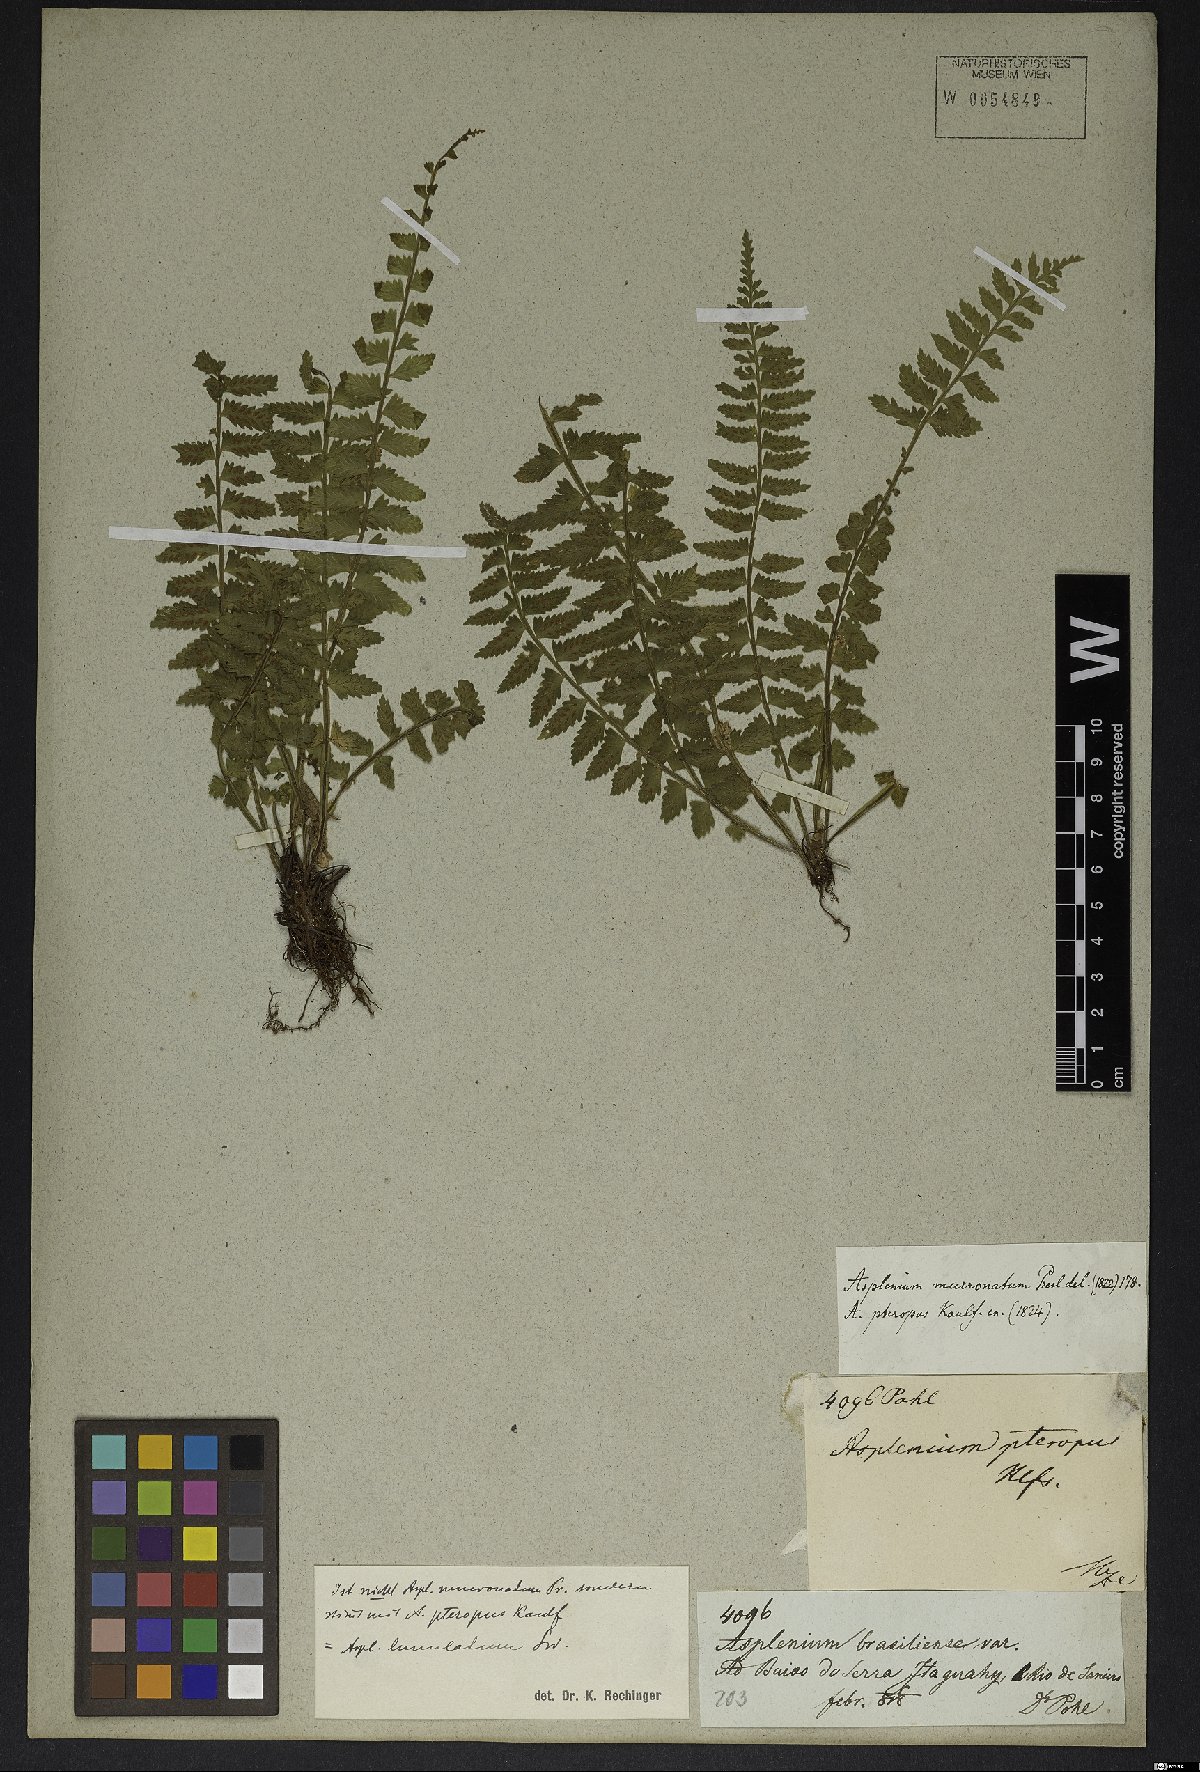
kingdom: Plantae
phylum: Tracheophyta
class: Polypodiopsida
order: Polypodiales
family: Aspleniaceae
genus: Asplenium
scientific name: Asplenium lunulatum
